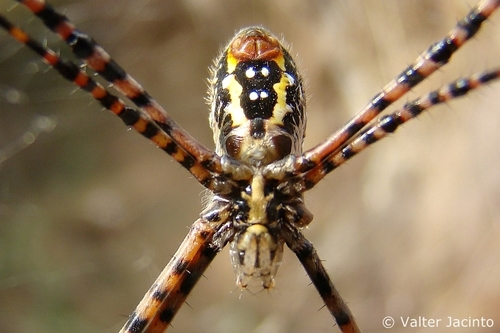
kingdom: Animalia
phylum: Arthropoda
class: Arachnida
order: Araneae
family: Araneidae
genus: Argiope
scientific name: Argiope trifasciata
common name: Banded garden spider
